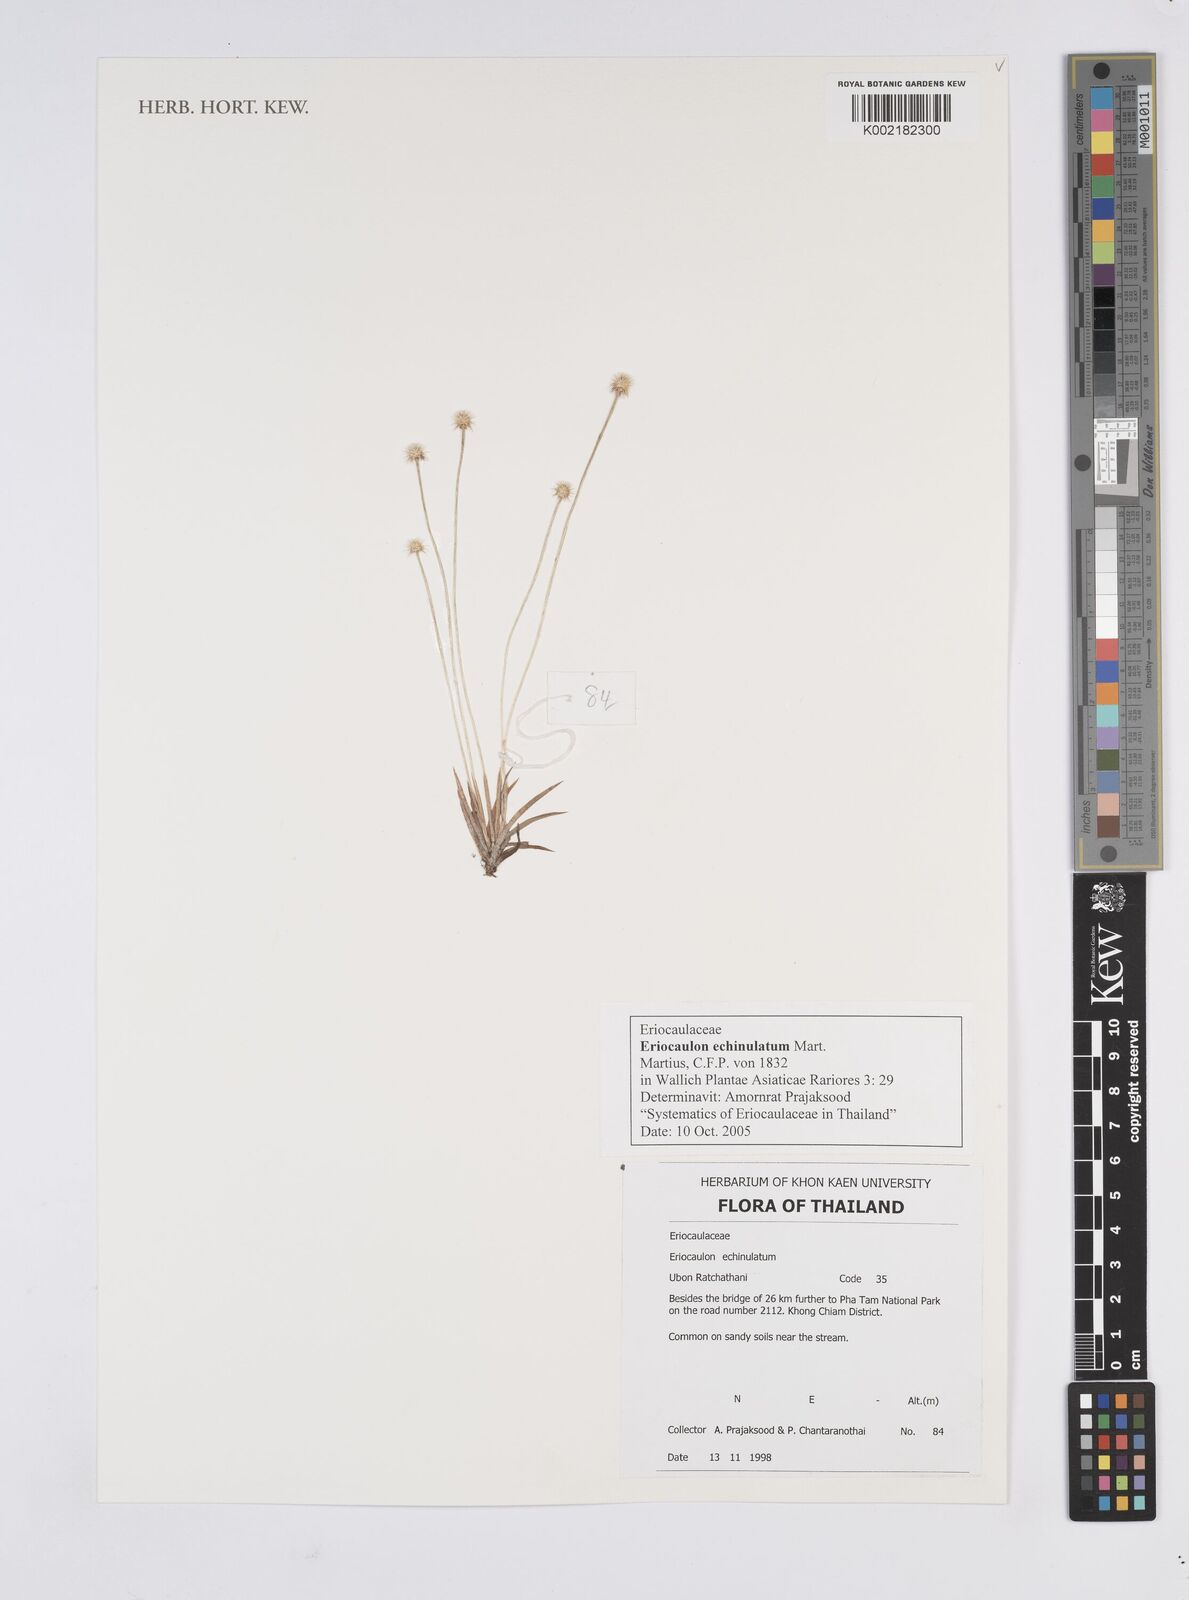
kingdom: Plantae
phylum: Tracheophyta
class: Liliopsida
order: Poales
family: Eriocaulaceae
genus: Eriocaulon
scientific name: Eriocaulon echinulatum
